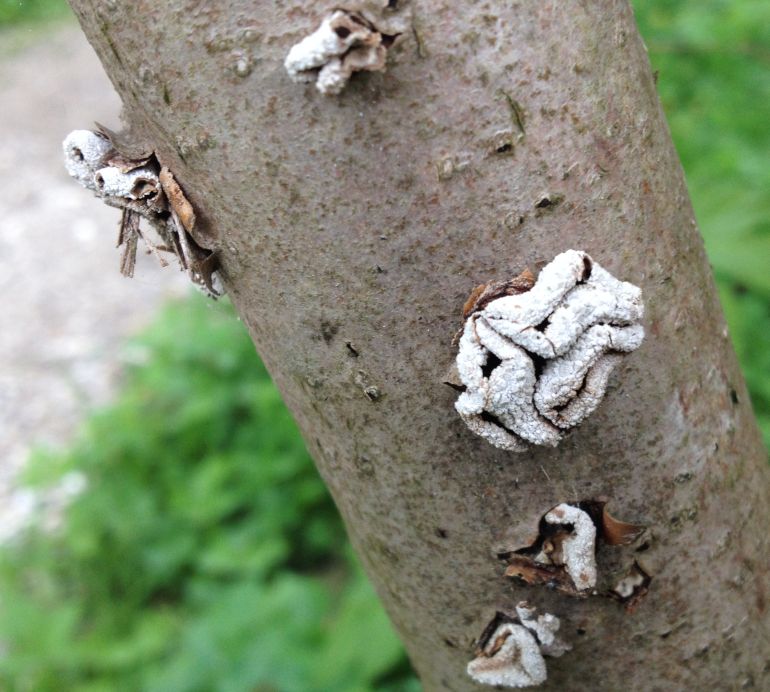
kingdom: Fungi
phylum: Ascomycota
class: Leotiomycetes
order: Helotiales
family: Cenangiaceae
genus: Encoelia
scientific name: Encoelia furfuracea
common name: hassel-læderskive
